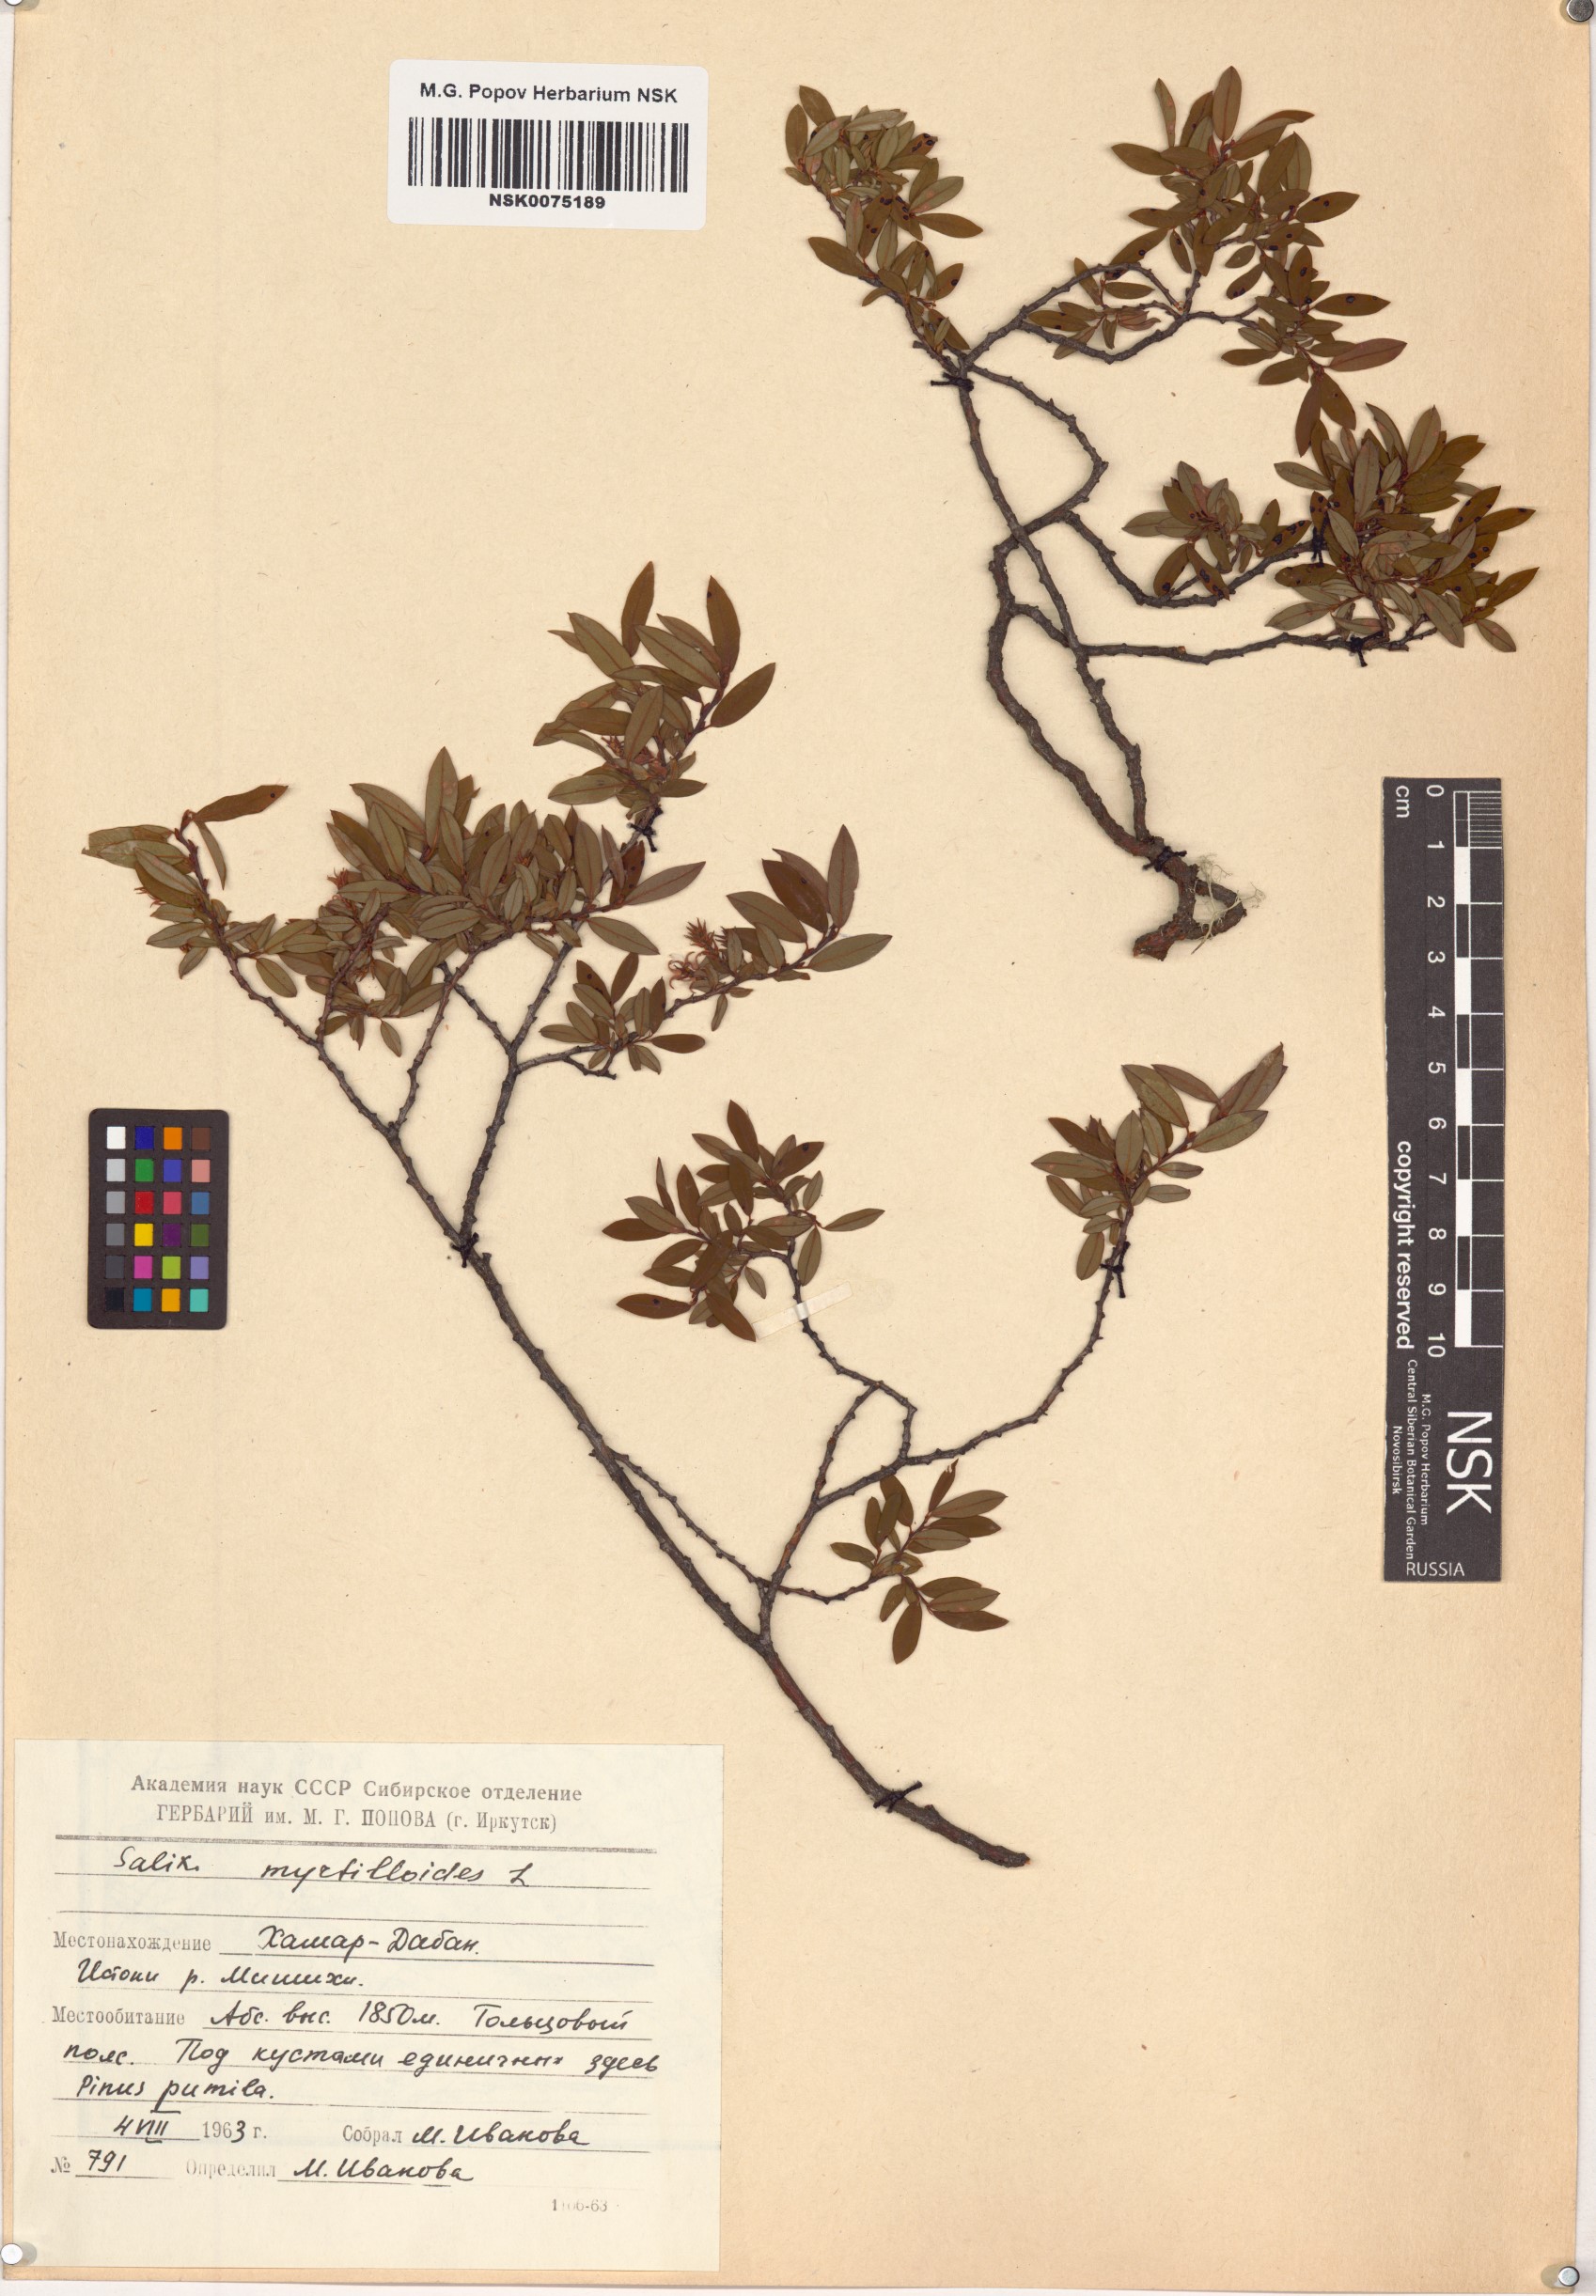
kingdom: Plantae
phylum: Tracheophyta
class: Magnoliopsida
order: Malpighiales
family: Salicaceae
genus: Salix
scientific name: Salix myrtilloides
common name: Myrtle-leaved willow
